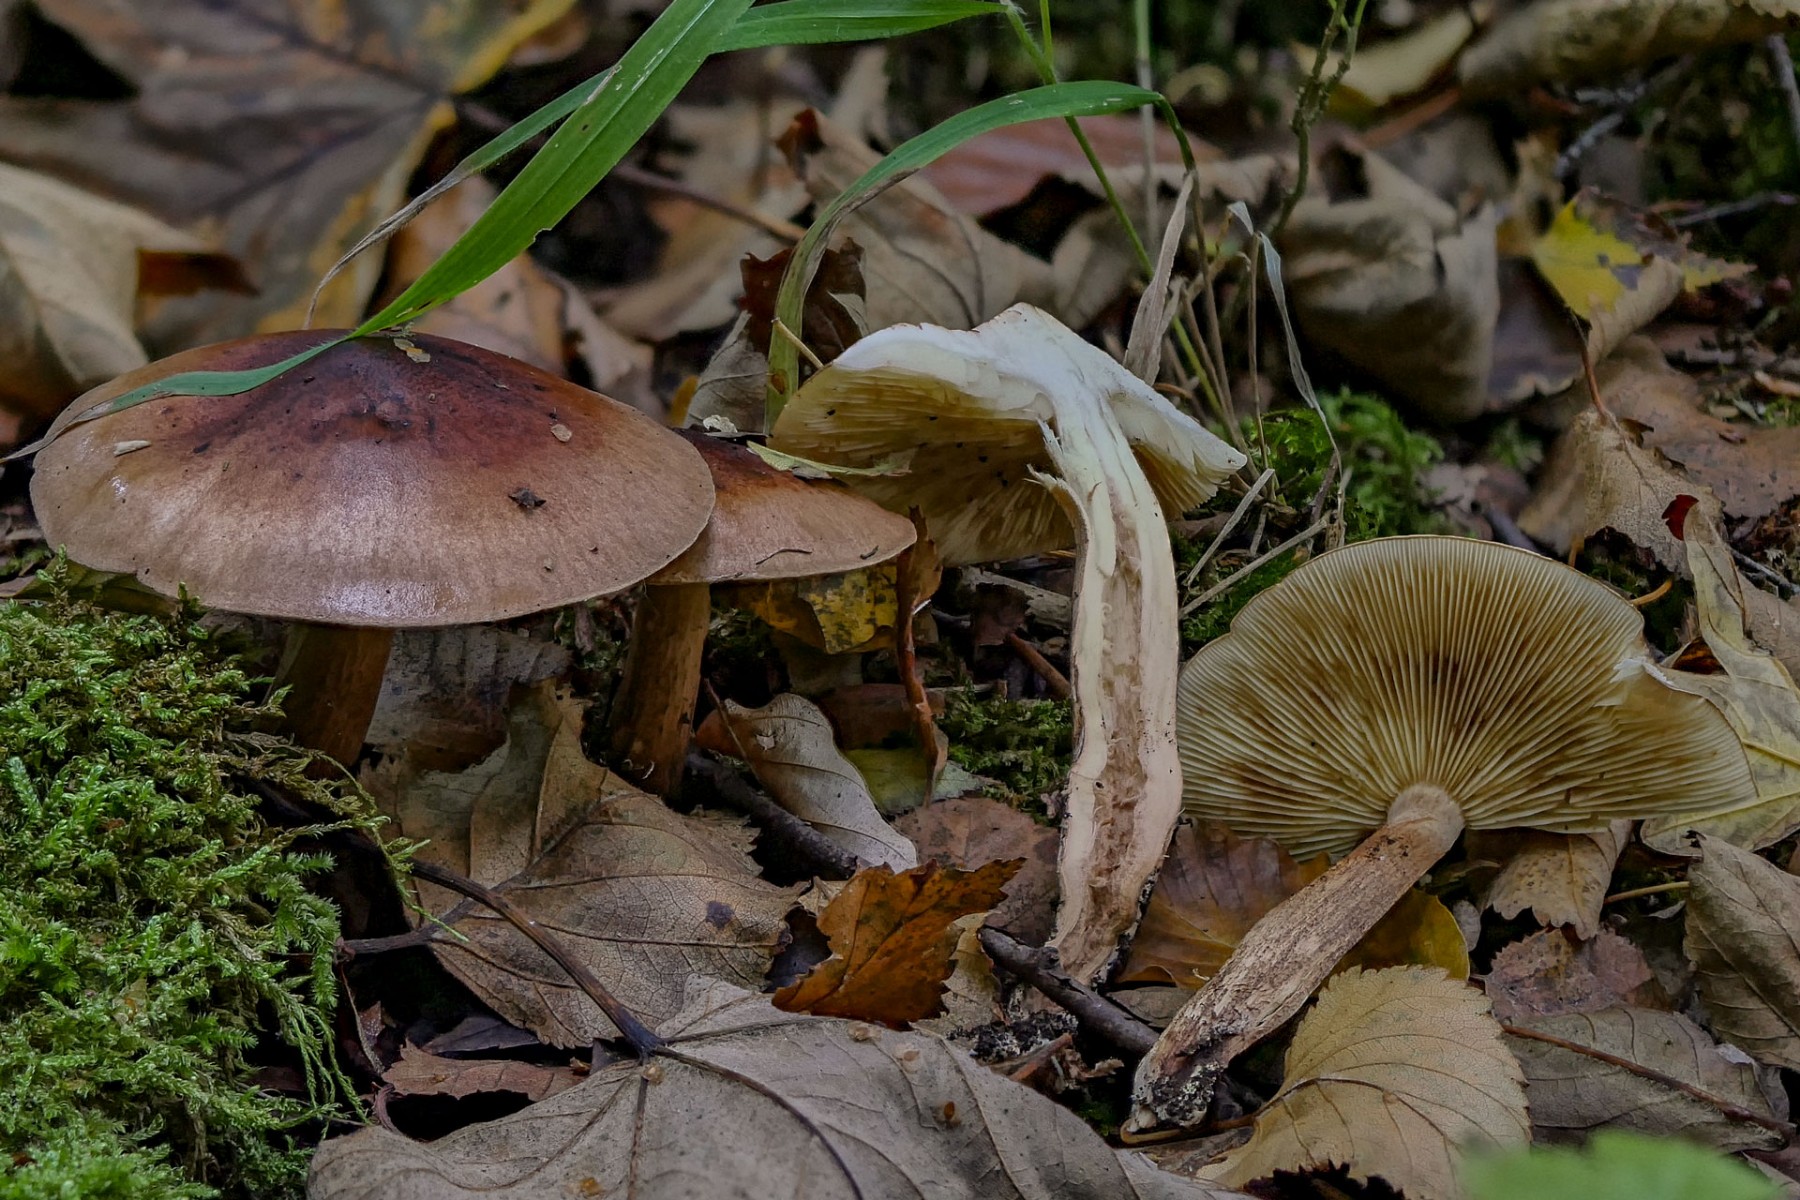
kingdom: Fungi
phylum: Basidiomycota
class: Agaricomycetes
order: Agaricales
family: Tricholomataceae
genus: Tricholoma
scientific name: Tricholoma fulvum
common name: birke-ridderhat
